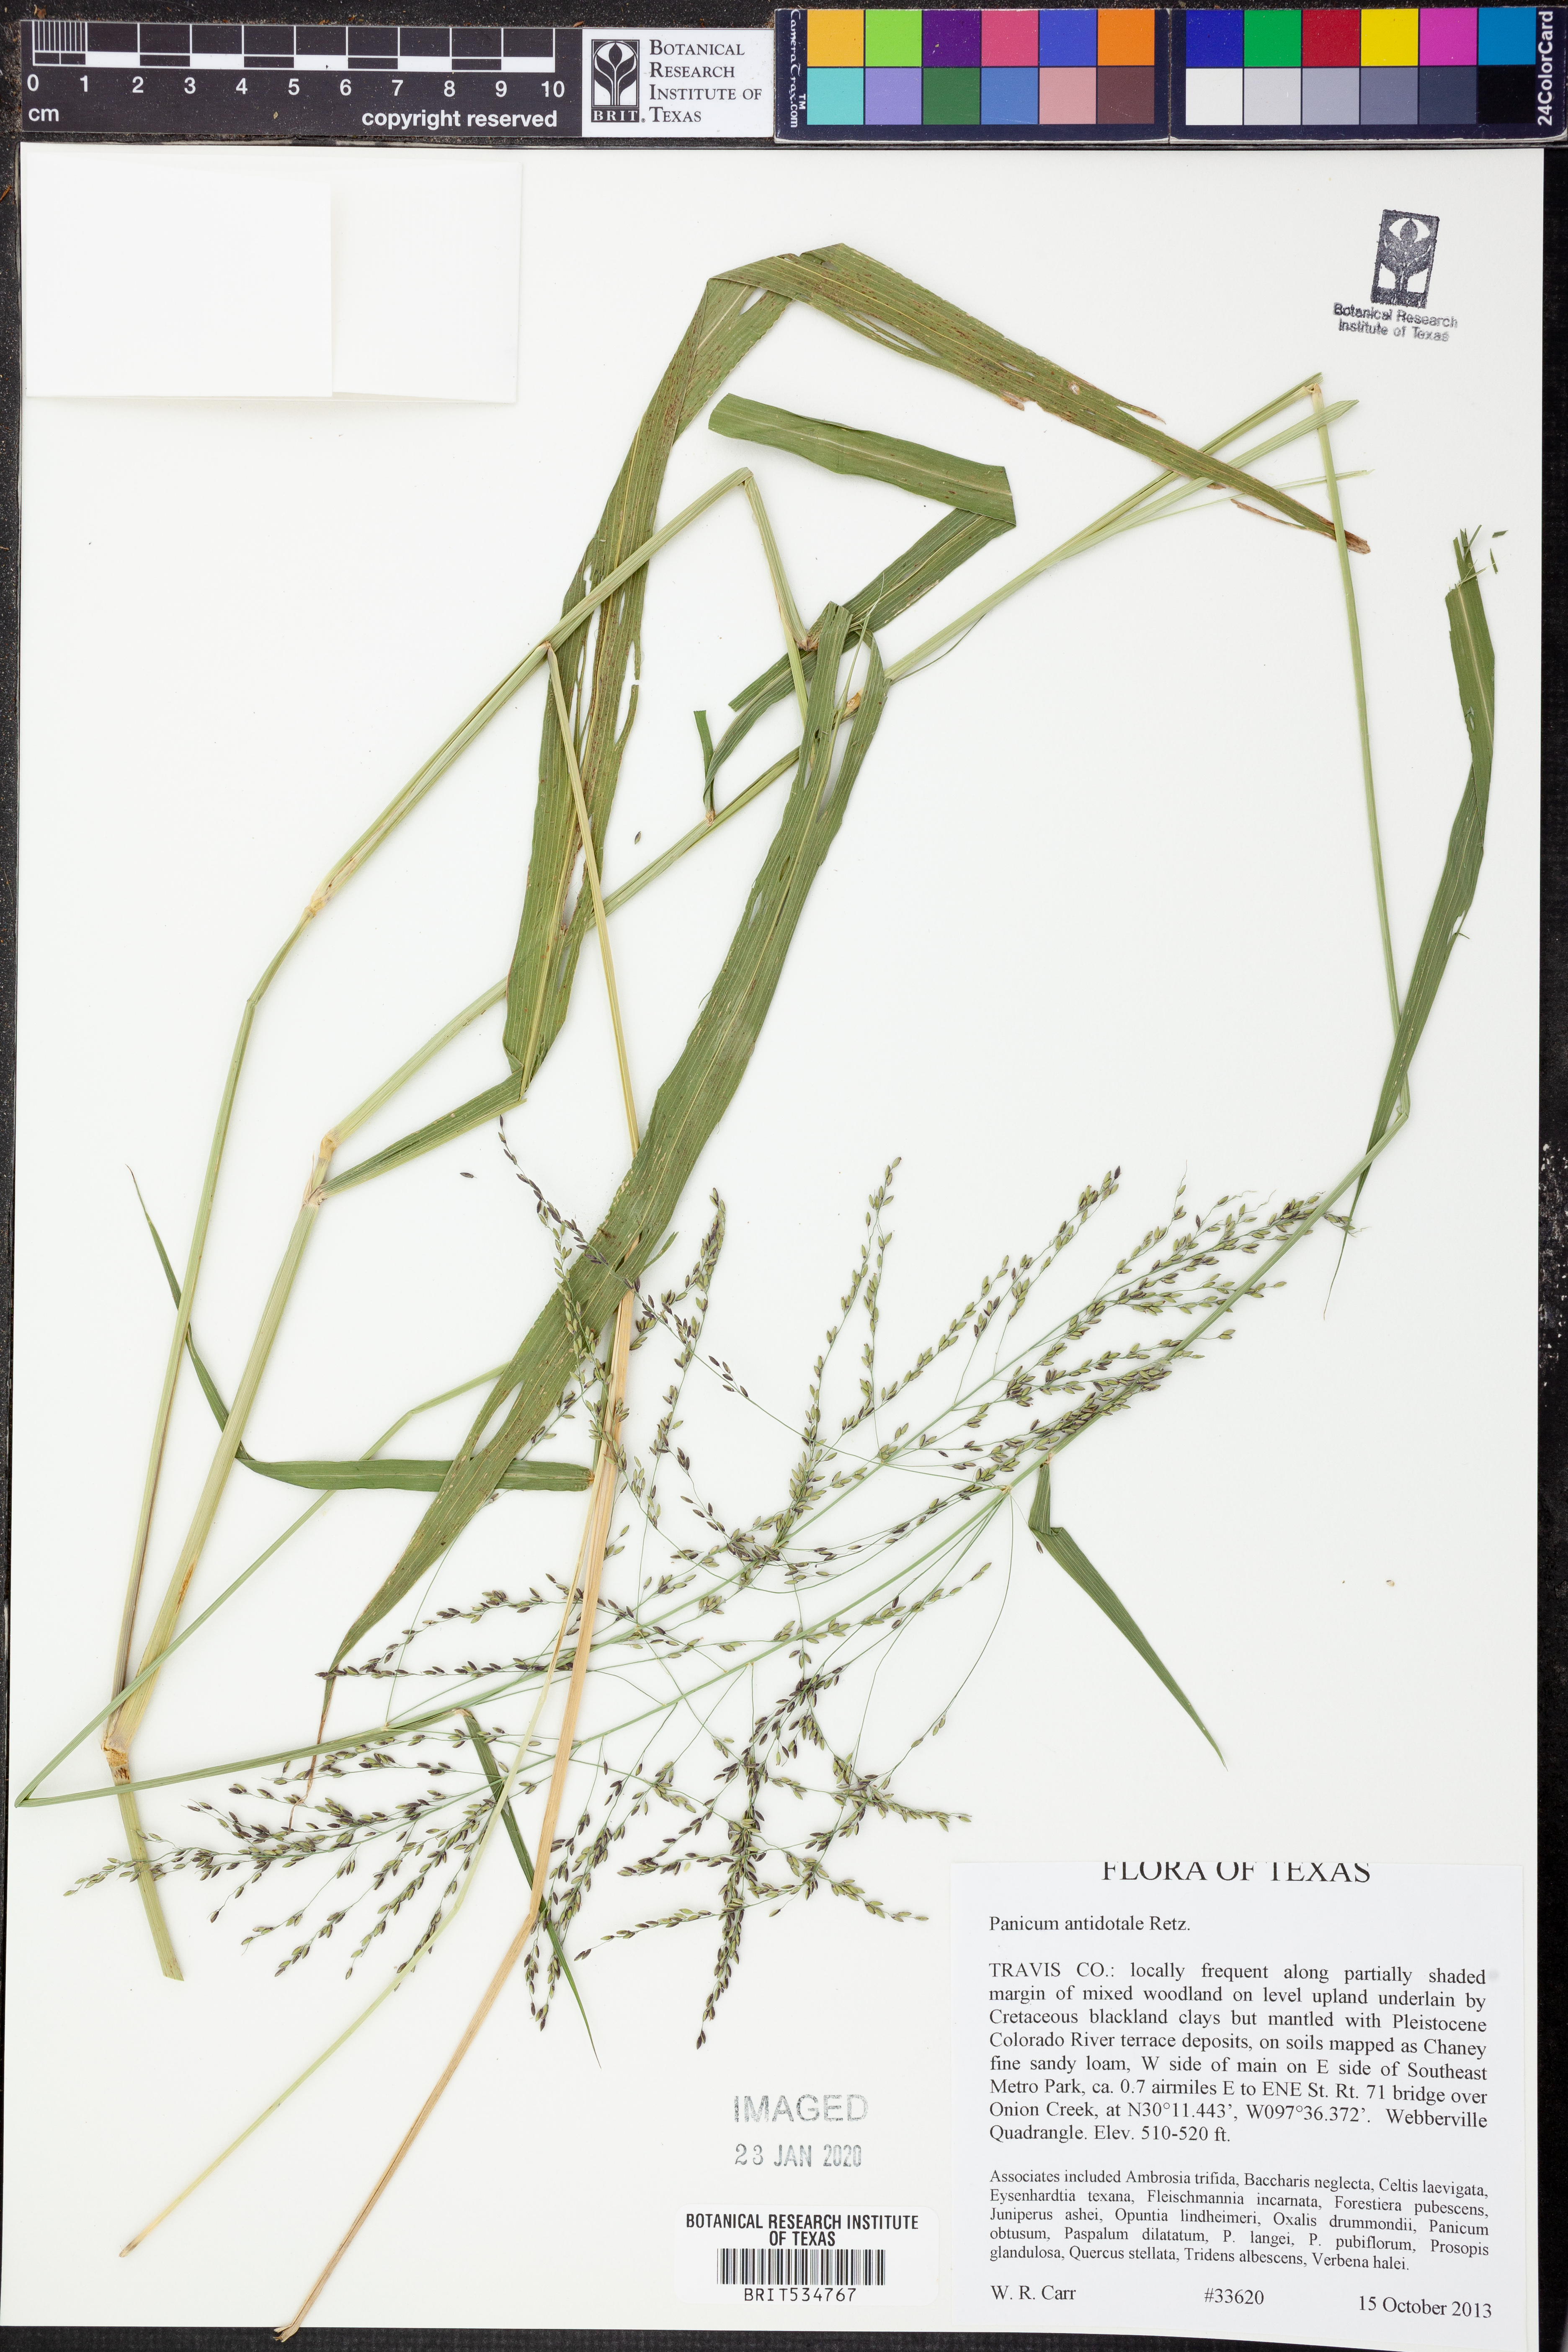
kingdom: Plantae
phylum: Tracheophyta
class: Liliopsida
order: Poales
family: Poaceae
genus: Panicum
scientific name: Panicum antidotale
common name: Blue panicum
